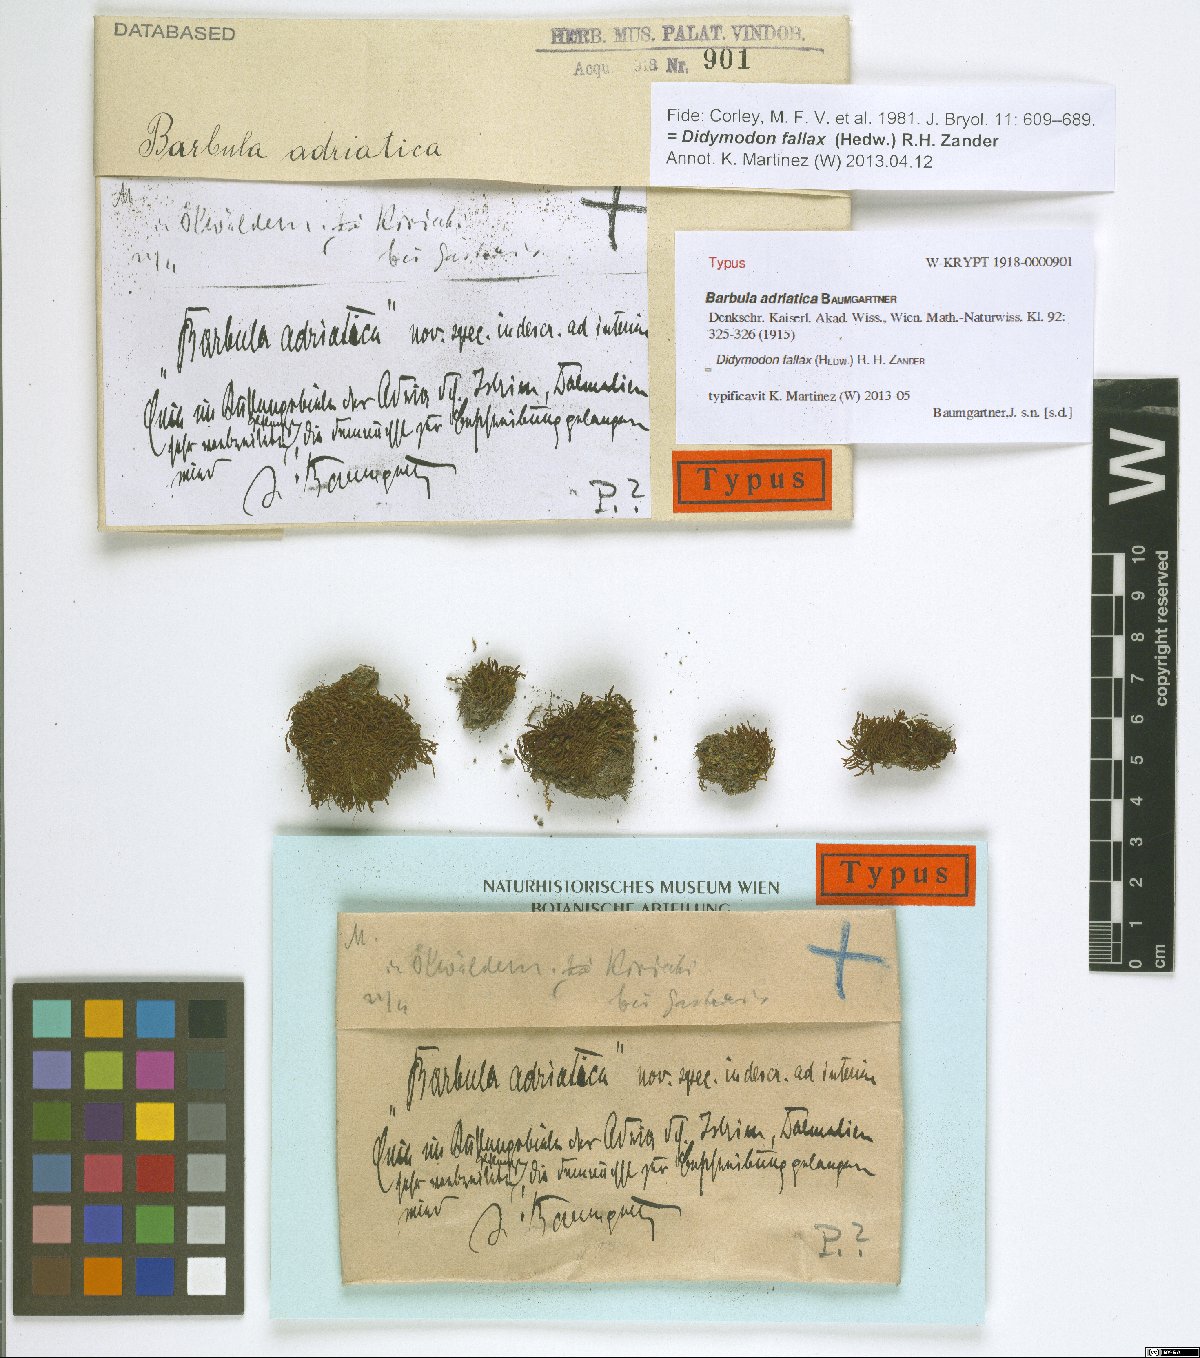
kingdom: Plantae
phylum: Bryophyta
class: Bryopsida
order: Pottiales
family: Pottiaceae
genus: Geheebia
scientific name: Geheebia fallax
